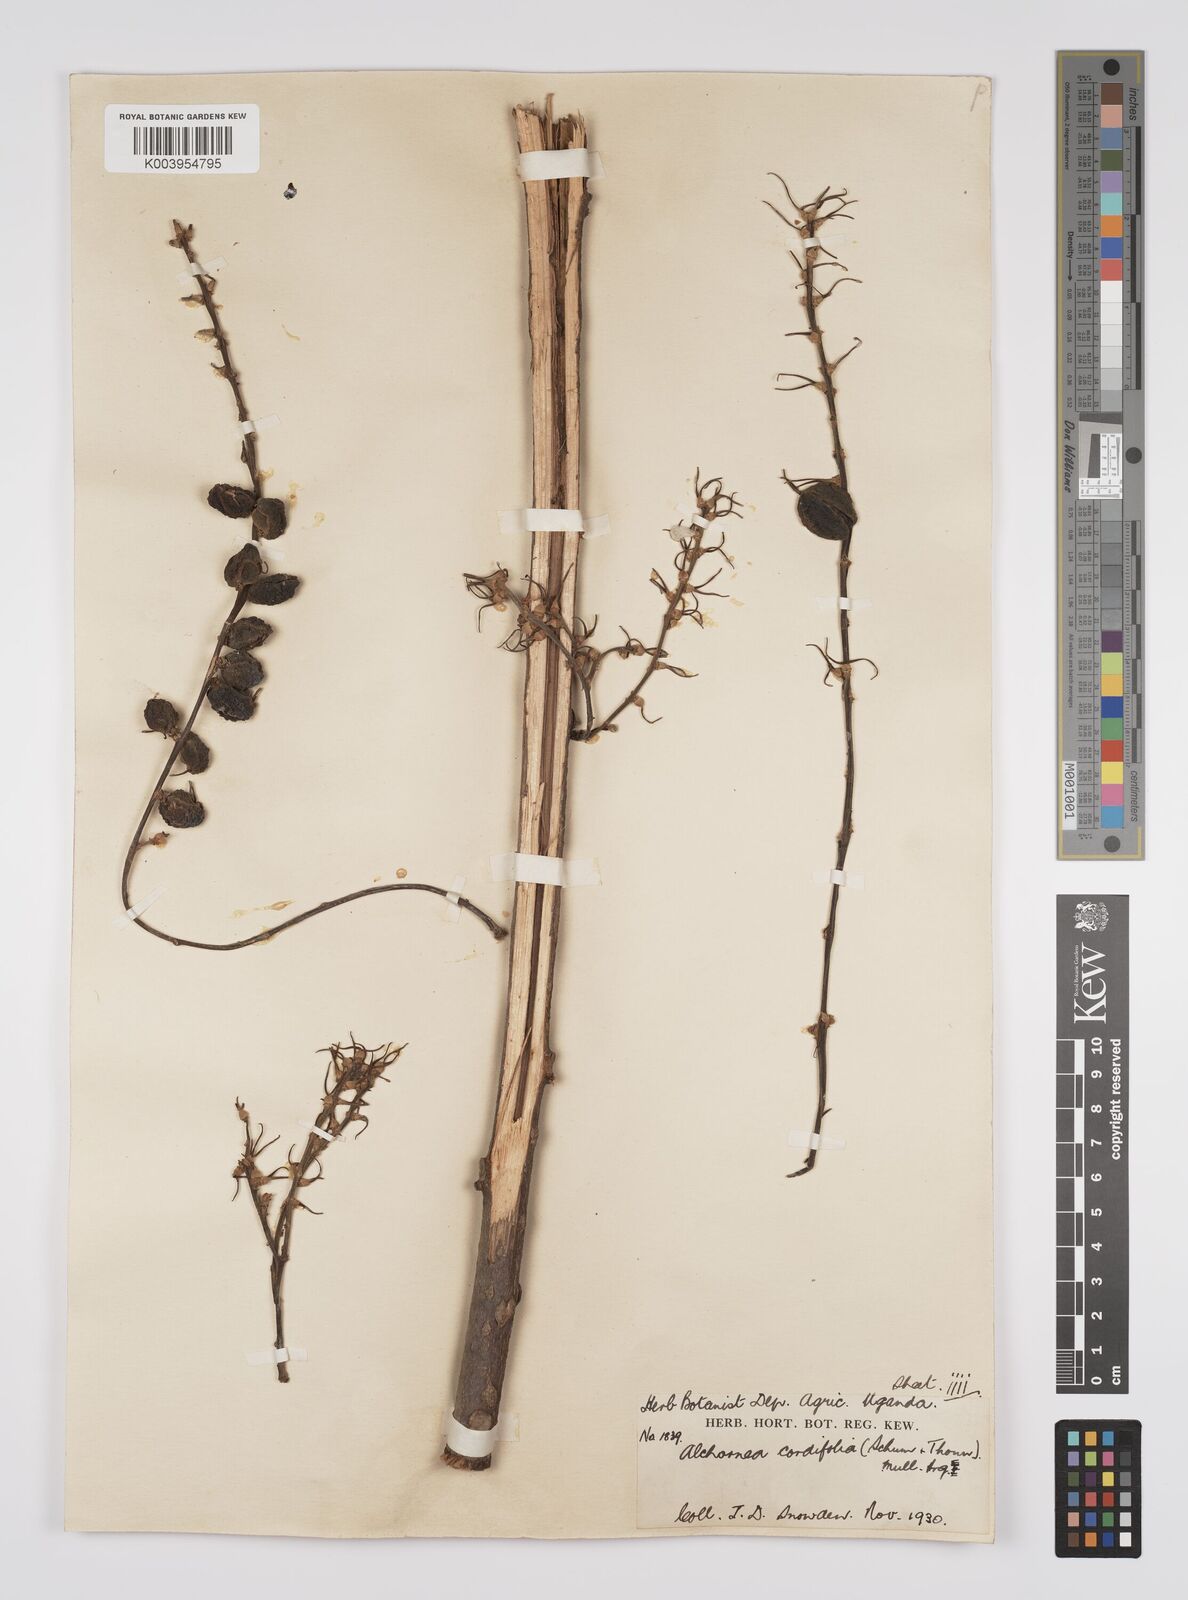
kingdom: Plantae
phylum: Tracheophyta
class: Magnoliopsida
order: Malpighiales
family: Euphorbiaceae
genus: Alchornea
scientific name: Alchornea cordifolia
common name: Christmasbush
